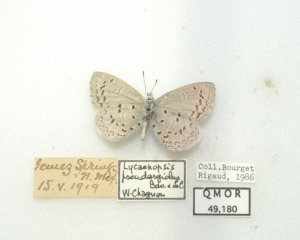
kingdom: Animalia
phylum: Arthropoda
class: Insecta
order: Lepidoptera
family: Lycaenidae
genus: Celastrina
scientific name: Celastrina ladon
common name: Spring Azure
